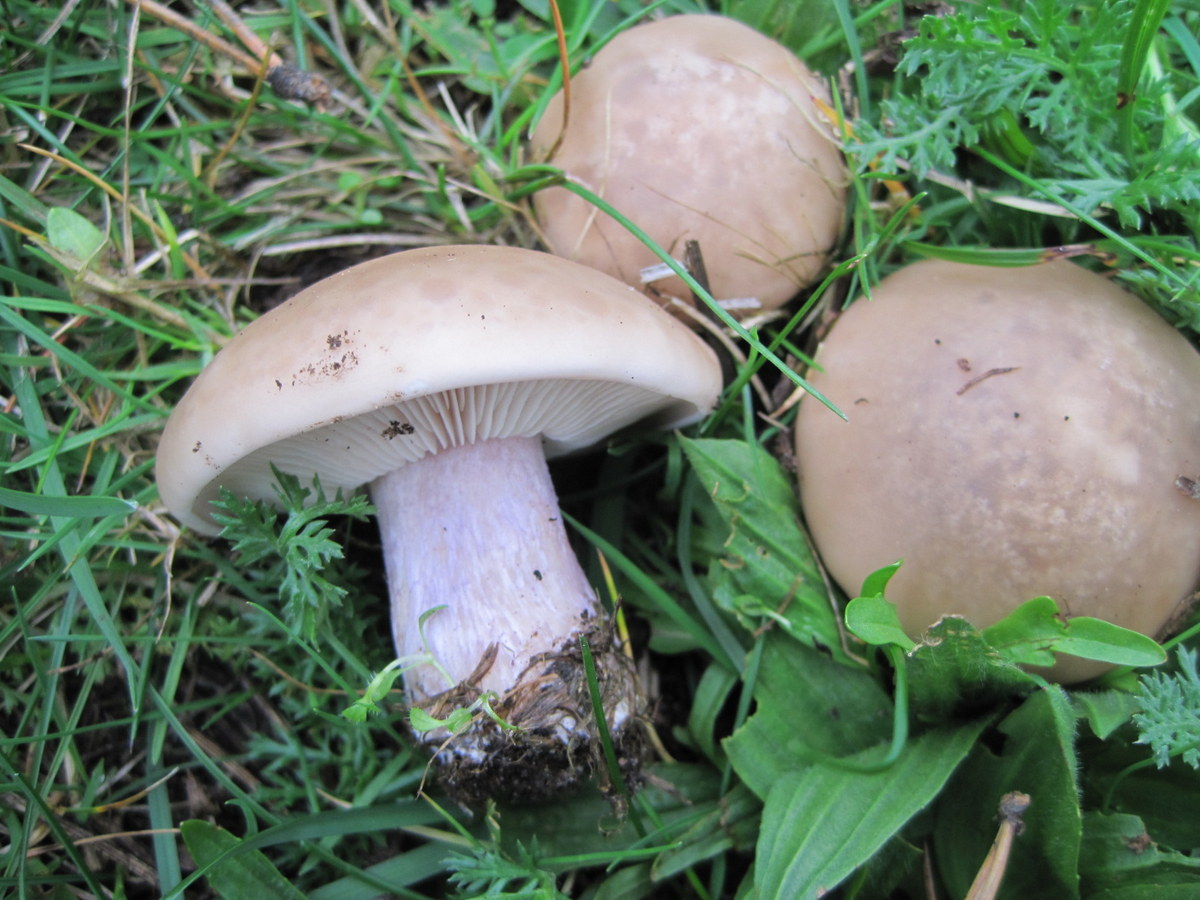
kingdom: Fungi
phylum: Basidiomycota
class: Agaricomycetes
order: Agaricales
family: Tricholomataceae
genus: Lepista
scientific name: Lepista personata
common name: bleg hekseringshat
